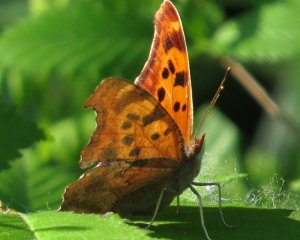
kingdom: Animalia
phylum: Arthropoda
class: Insecta
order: Lepidoptera
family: Nymphalidae
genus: Polygonia
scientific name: Polygonia interrogationis
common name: Question Mark
